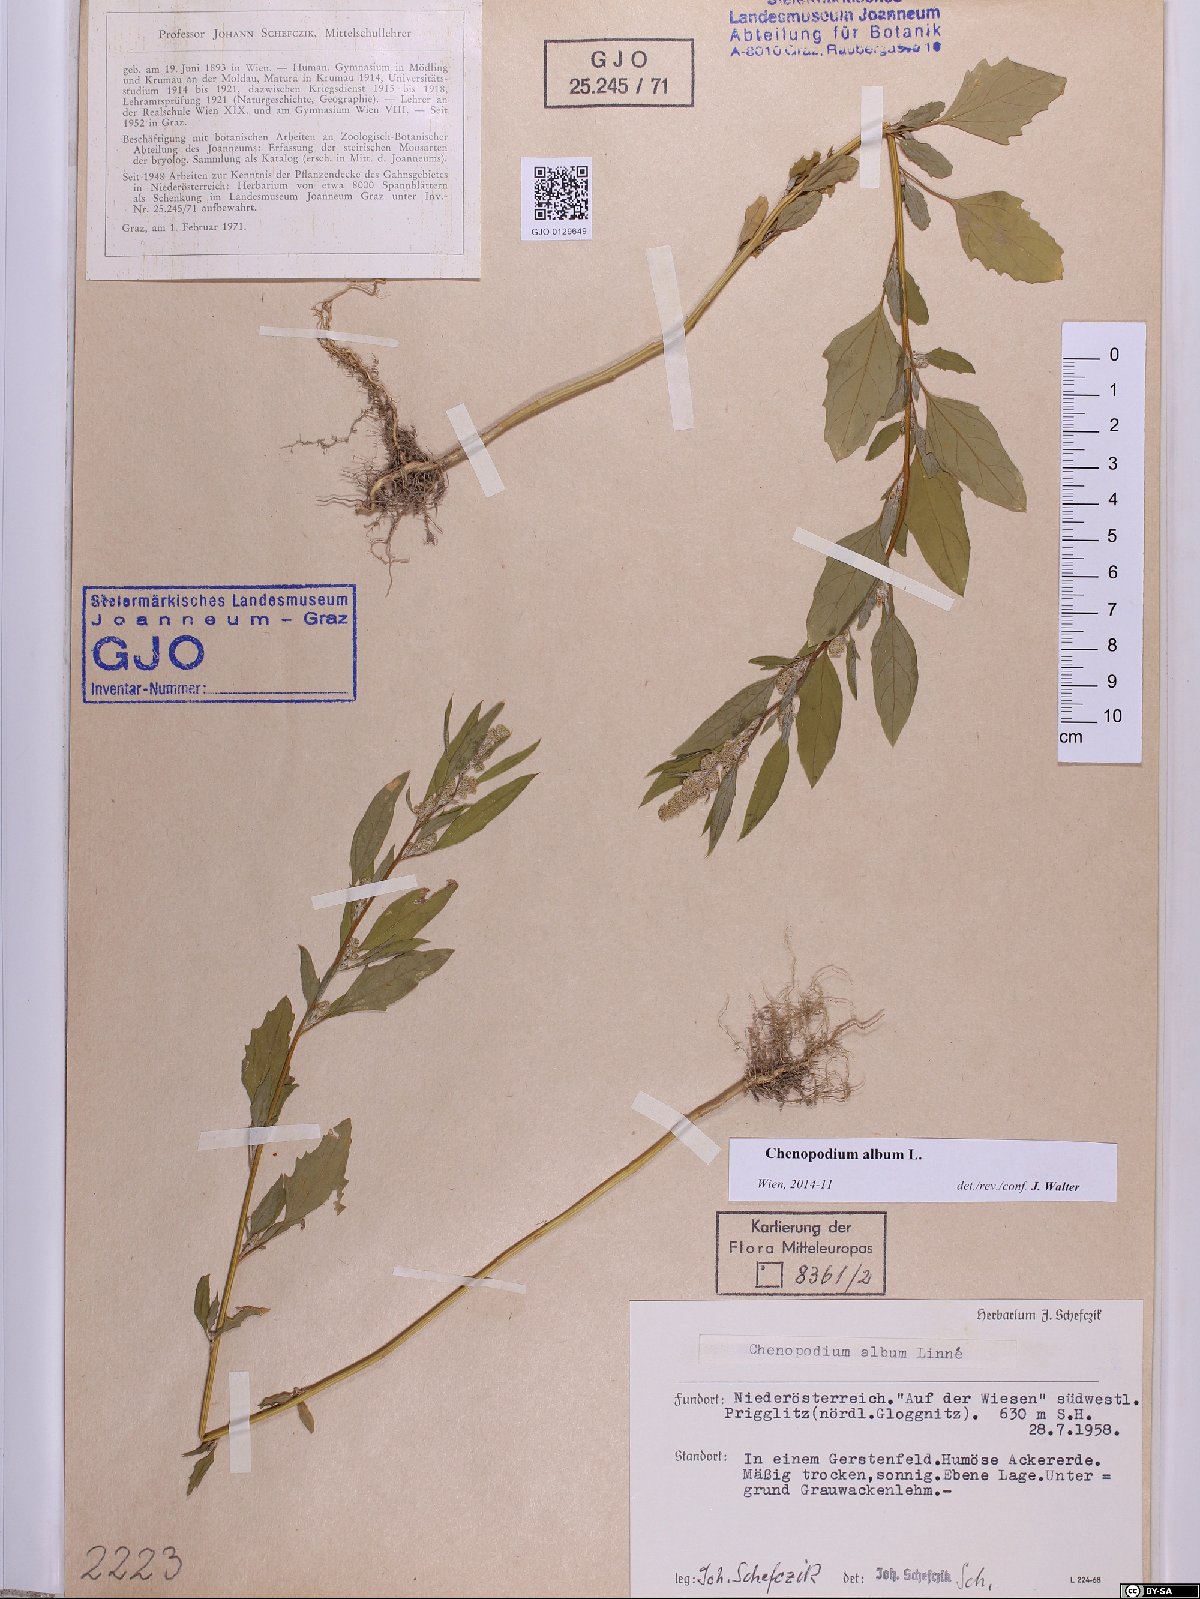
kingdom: Plantae
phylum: Tracheophyta
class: Magnoliopsida
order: Caryophyllales
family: Amaranthaceae
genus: Chenopodium
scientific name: Chenopodium album
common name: Fat-hen
